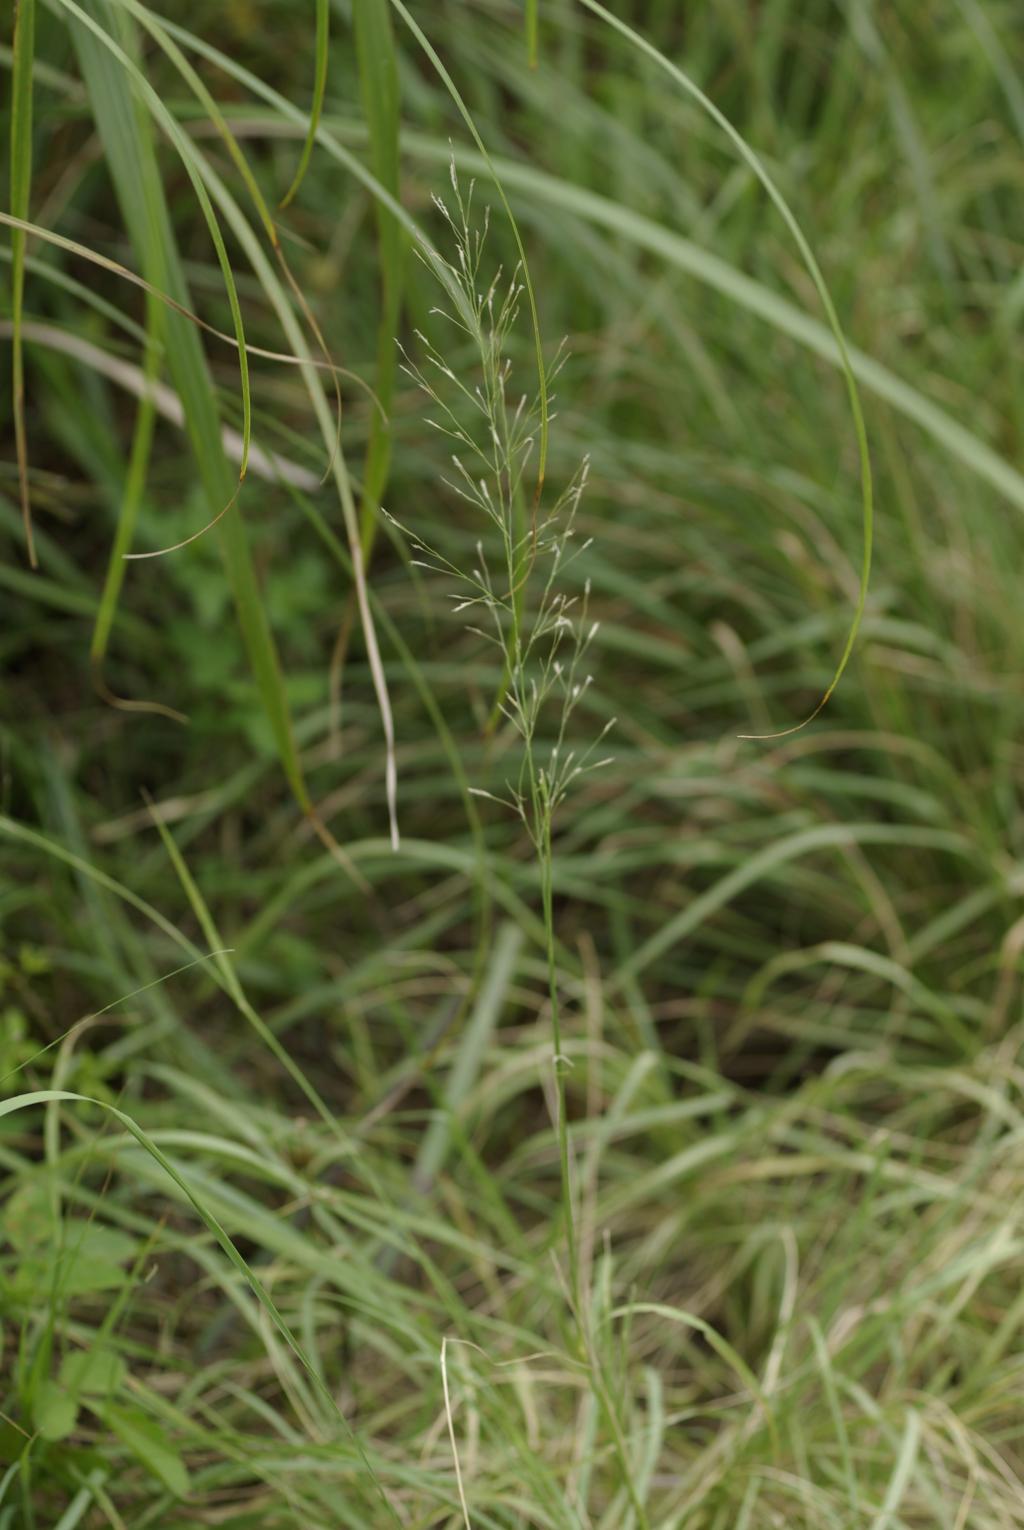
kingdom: Plantae
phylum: Tracheophyta
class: Liliopsida
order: Poales
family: Poaceae
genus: Eragrostis
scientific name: Eragrostis tenuifolia
